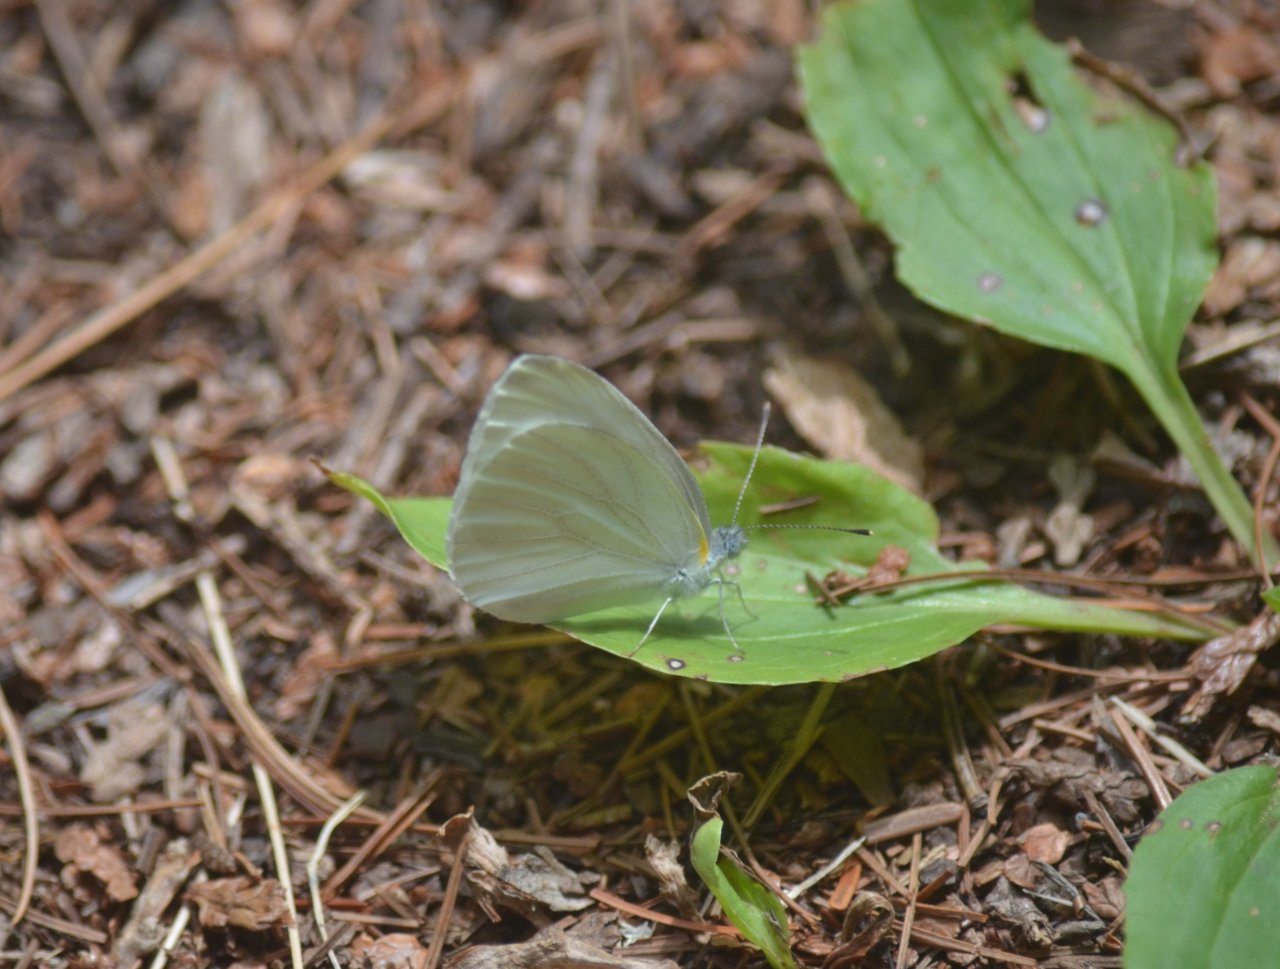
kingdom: Animalia
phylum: Arthropoda
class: Insecta
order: Lepidoptera
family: Pieridae
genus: Pieris
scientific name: Pieris oleracea
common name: Mustard White
